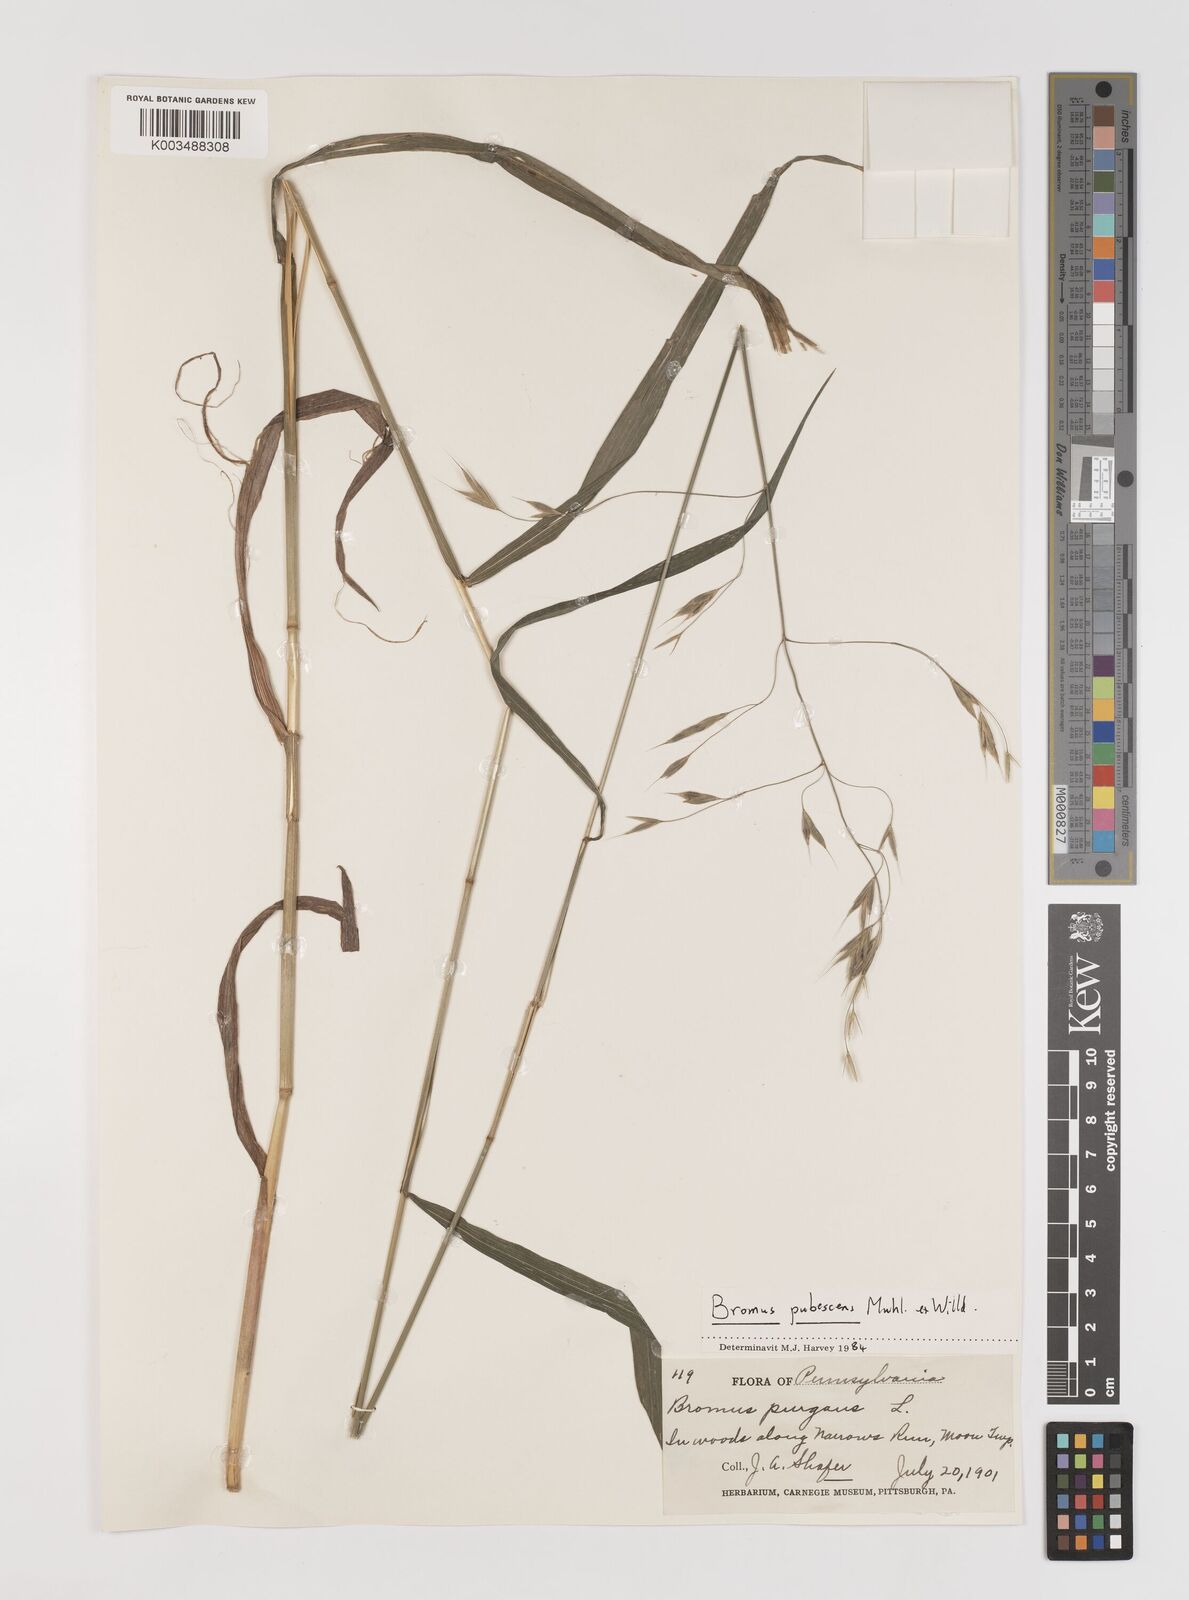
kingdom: Plantae
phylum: Tracheophyta
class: Liliopsida
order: Poales
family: Poaceae
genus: Bromus
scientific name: Bromus pubescens
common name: Hairy wood brome grass
